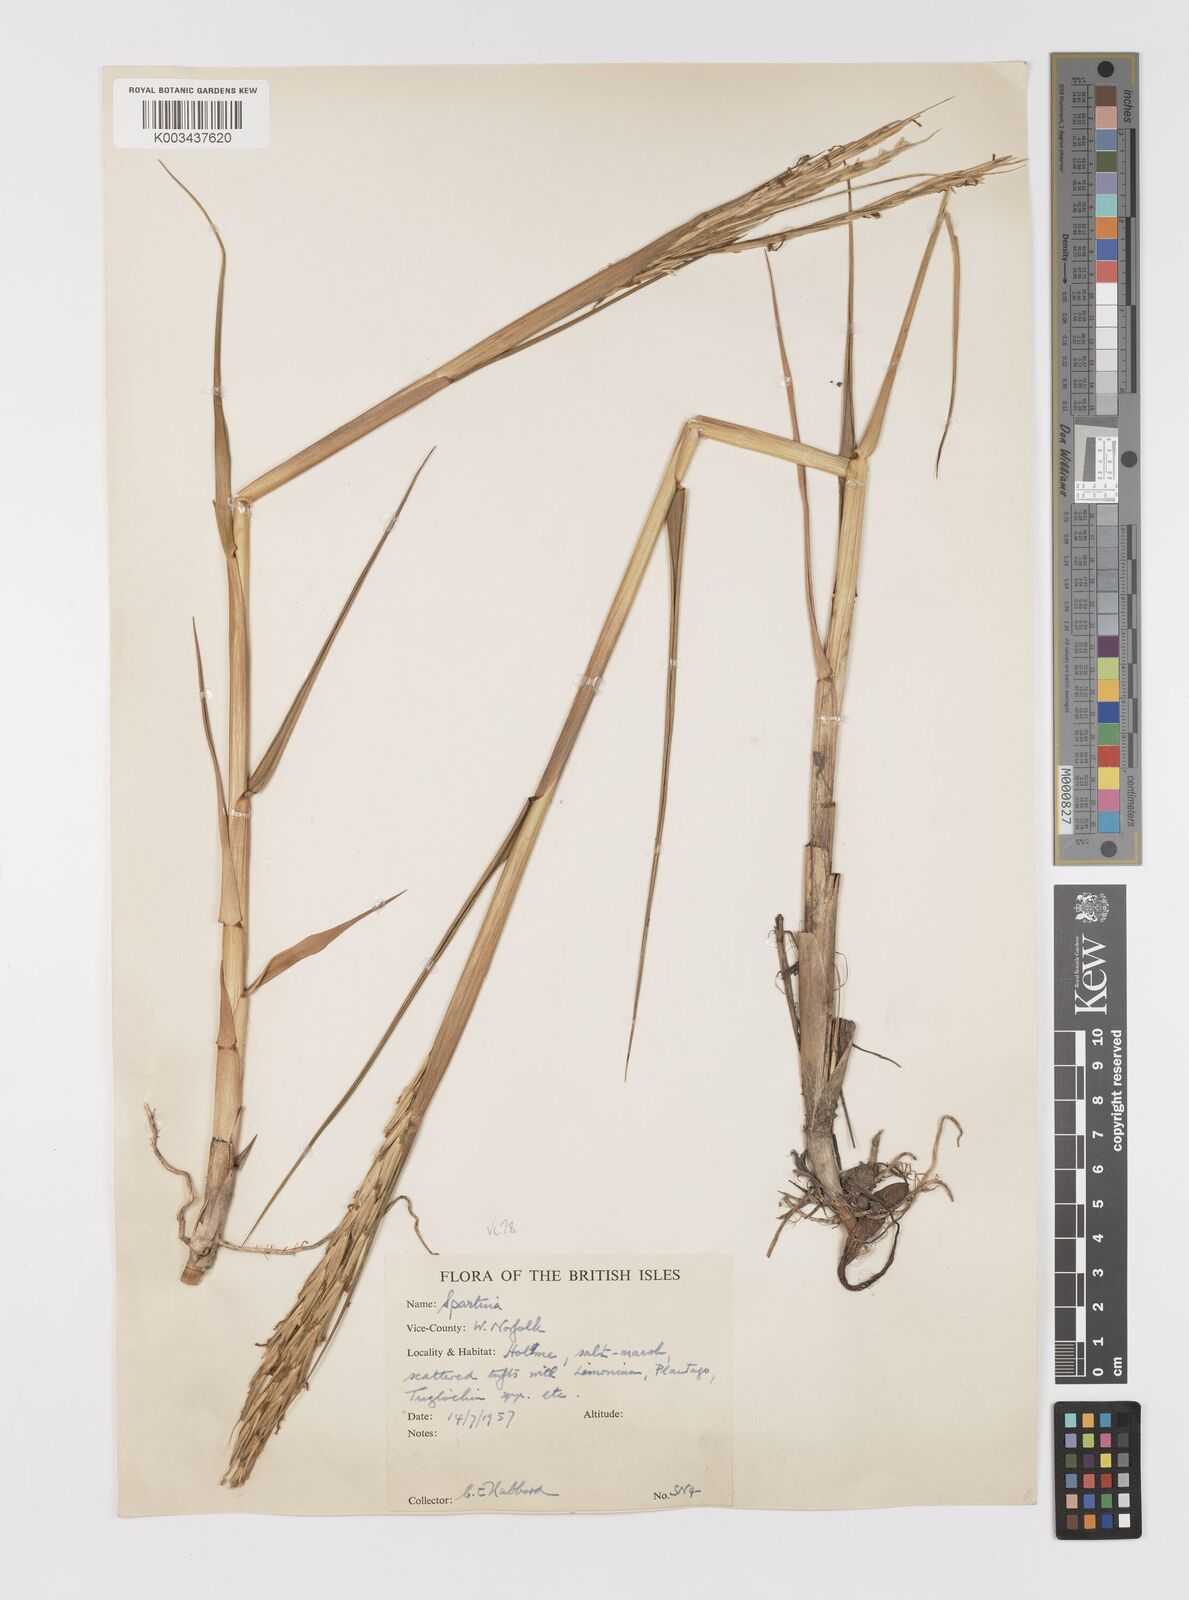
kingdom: Plantae
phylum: Tracheophyta
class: Liliopsida
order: Poales
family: Poaceae
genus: Sporobolus
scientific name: Sporobolus anglicus
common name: English cordgrass
